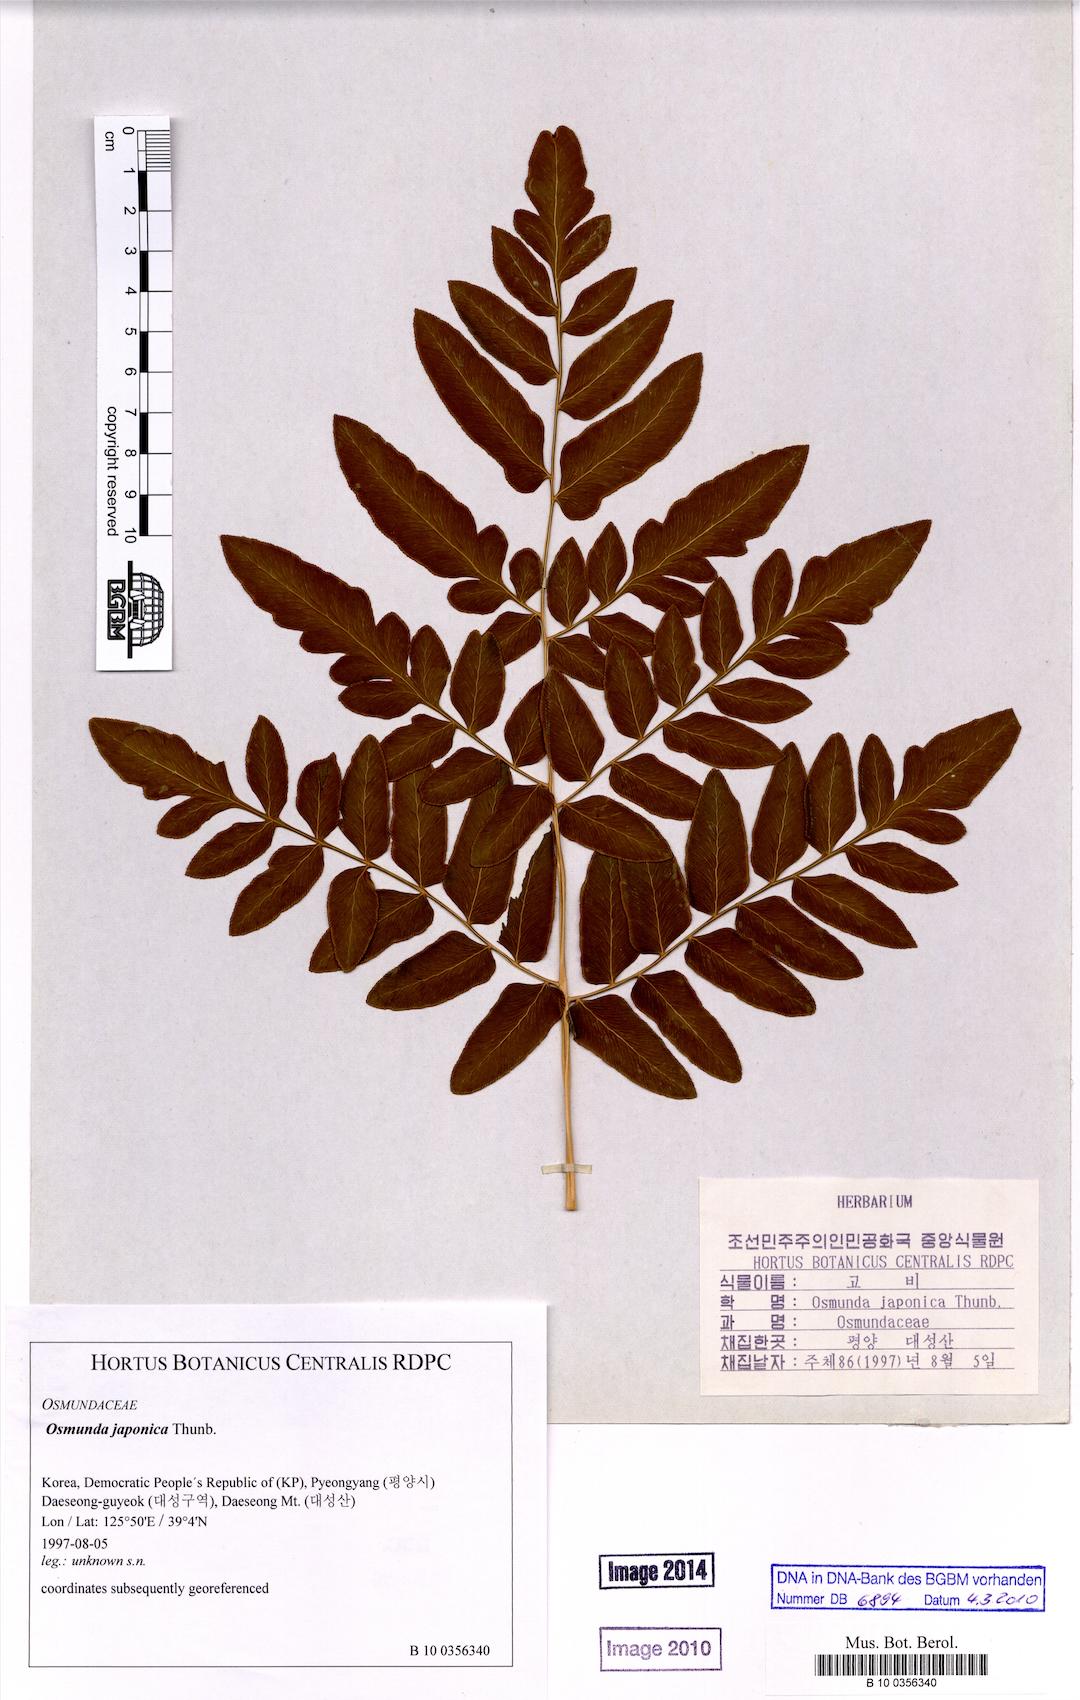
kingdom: Plantae
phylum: Tracheophyta
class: Polypodiopsida
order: Osmundales
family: Osmundaceae
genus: Osmunda
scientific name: Osmunda japonica
